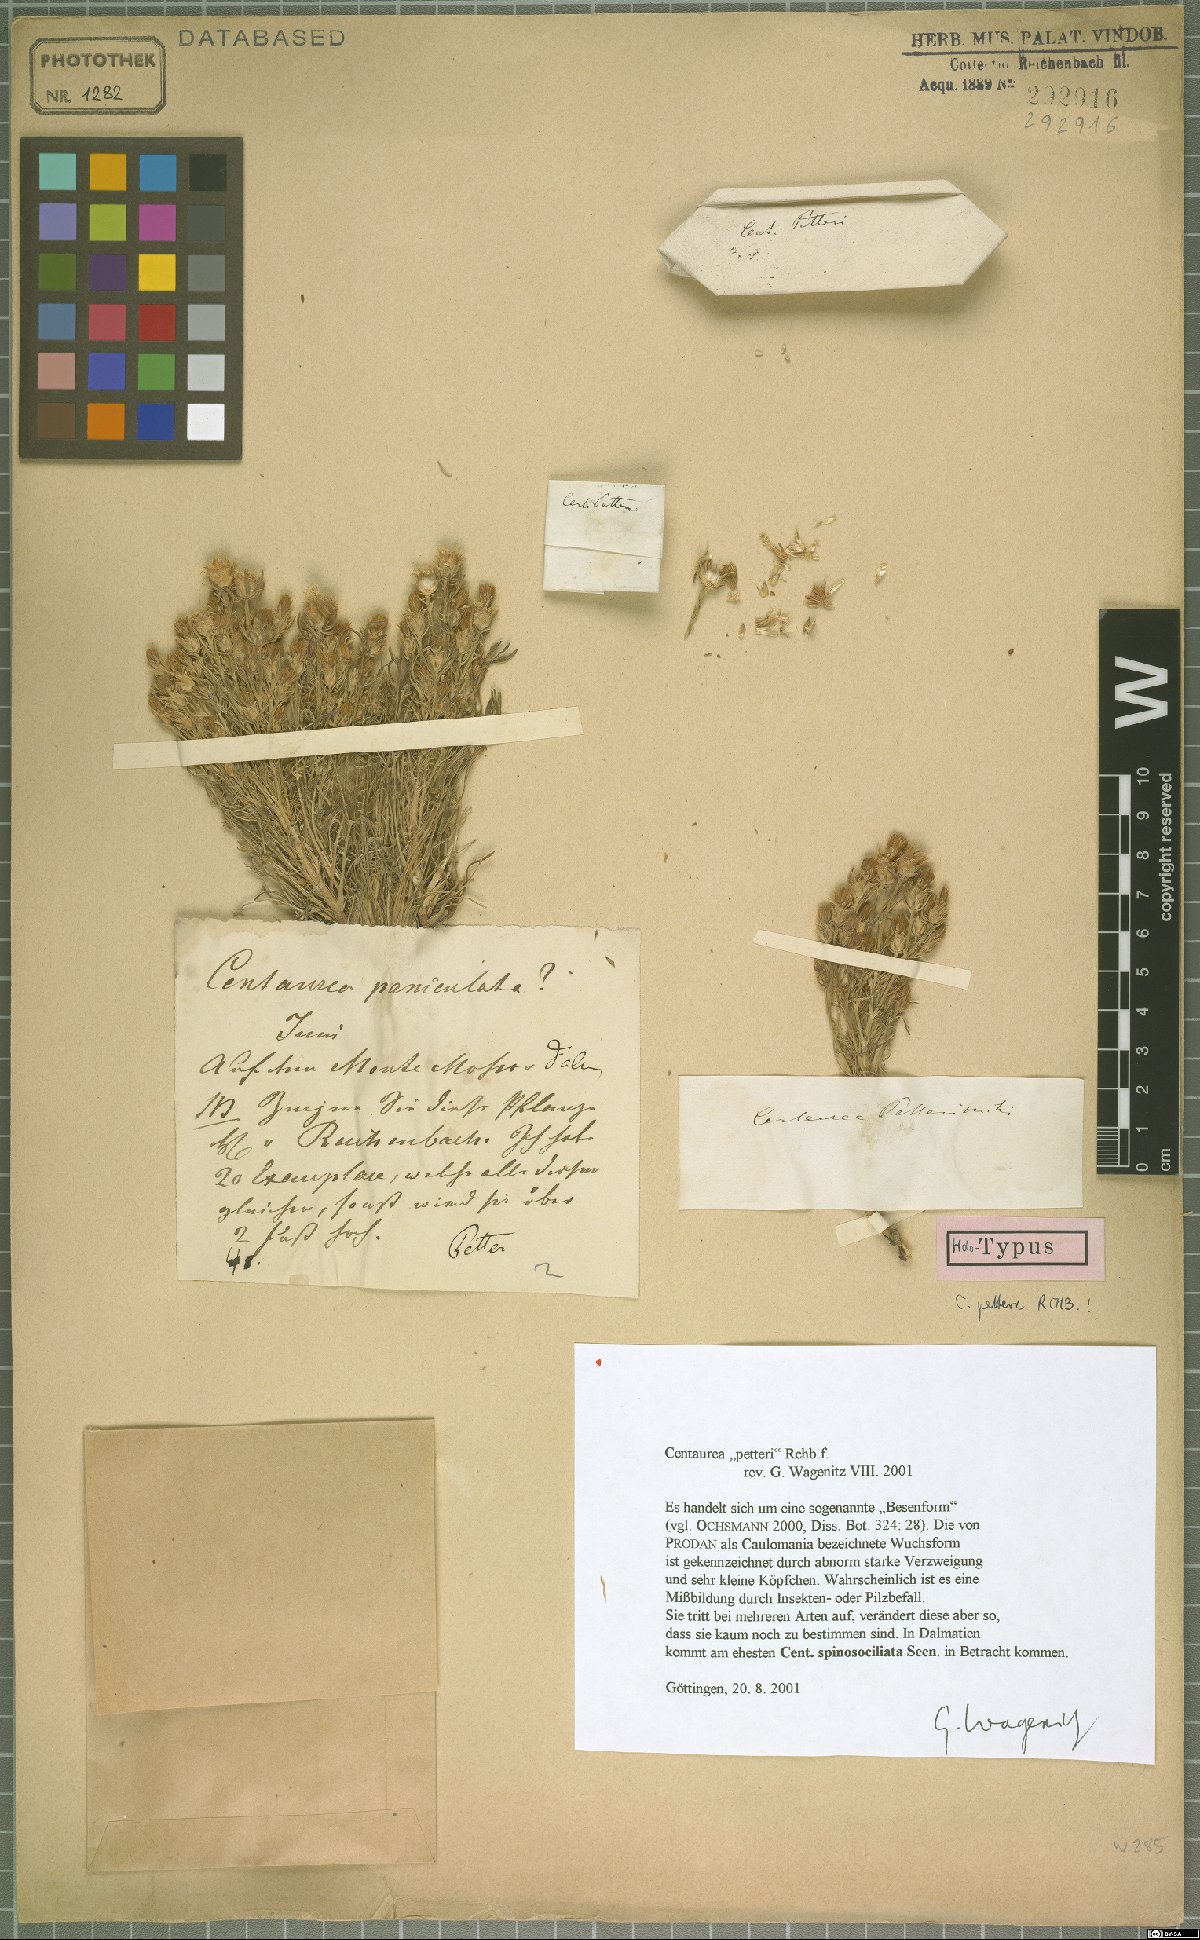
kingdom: Plantae
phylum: Tracheophyta
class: Magnoliopsida
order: Asterales
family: Asteraceae
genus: Centaurea
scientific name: Centaurea glaberrima
